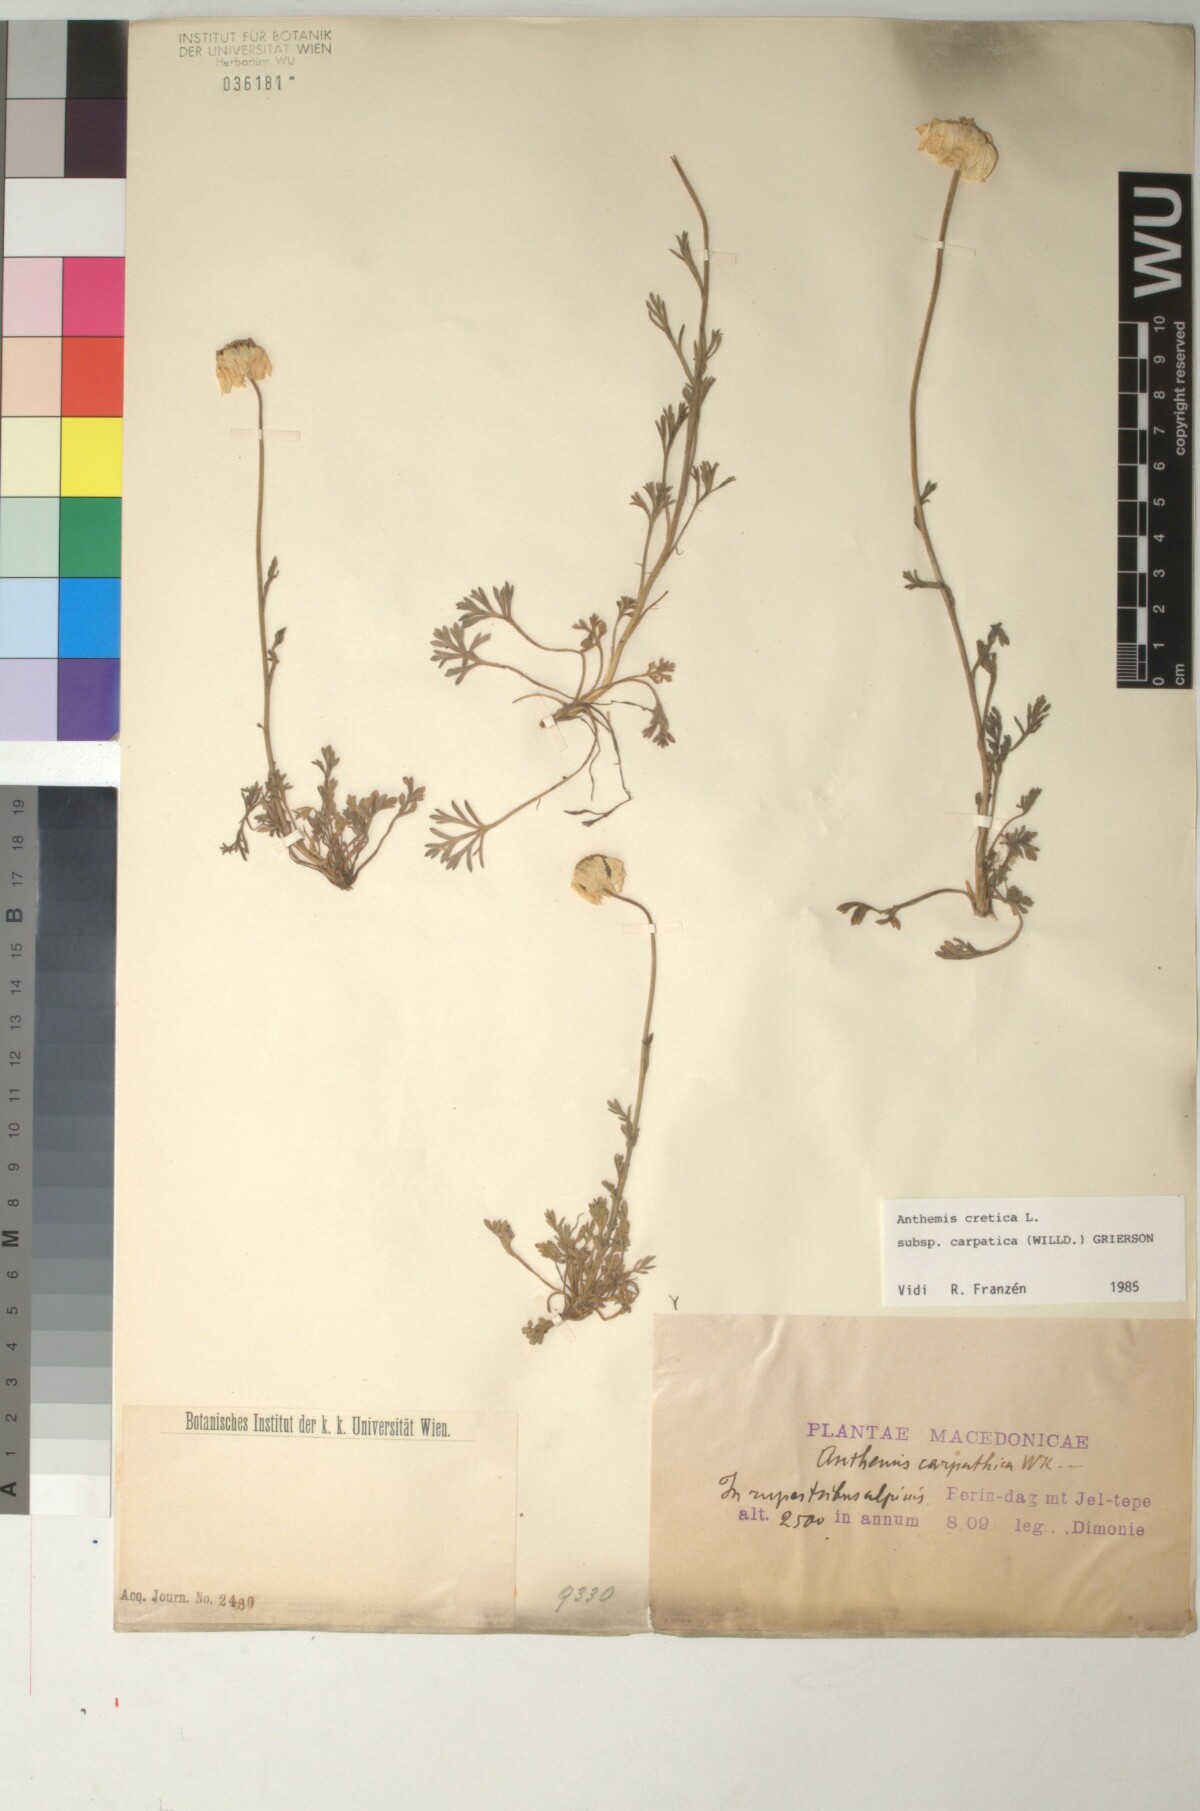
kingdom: Plantae
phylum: Tracheophyta
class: Magnoliopsida
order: Asterales
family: Asteraceae
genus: Anthemis
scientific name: Anthemis cretica
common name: Mountain dog-daisy
